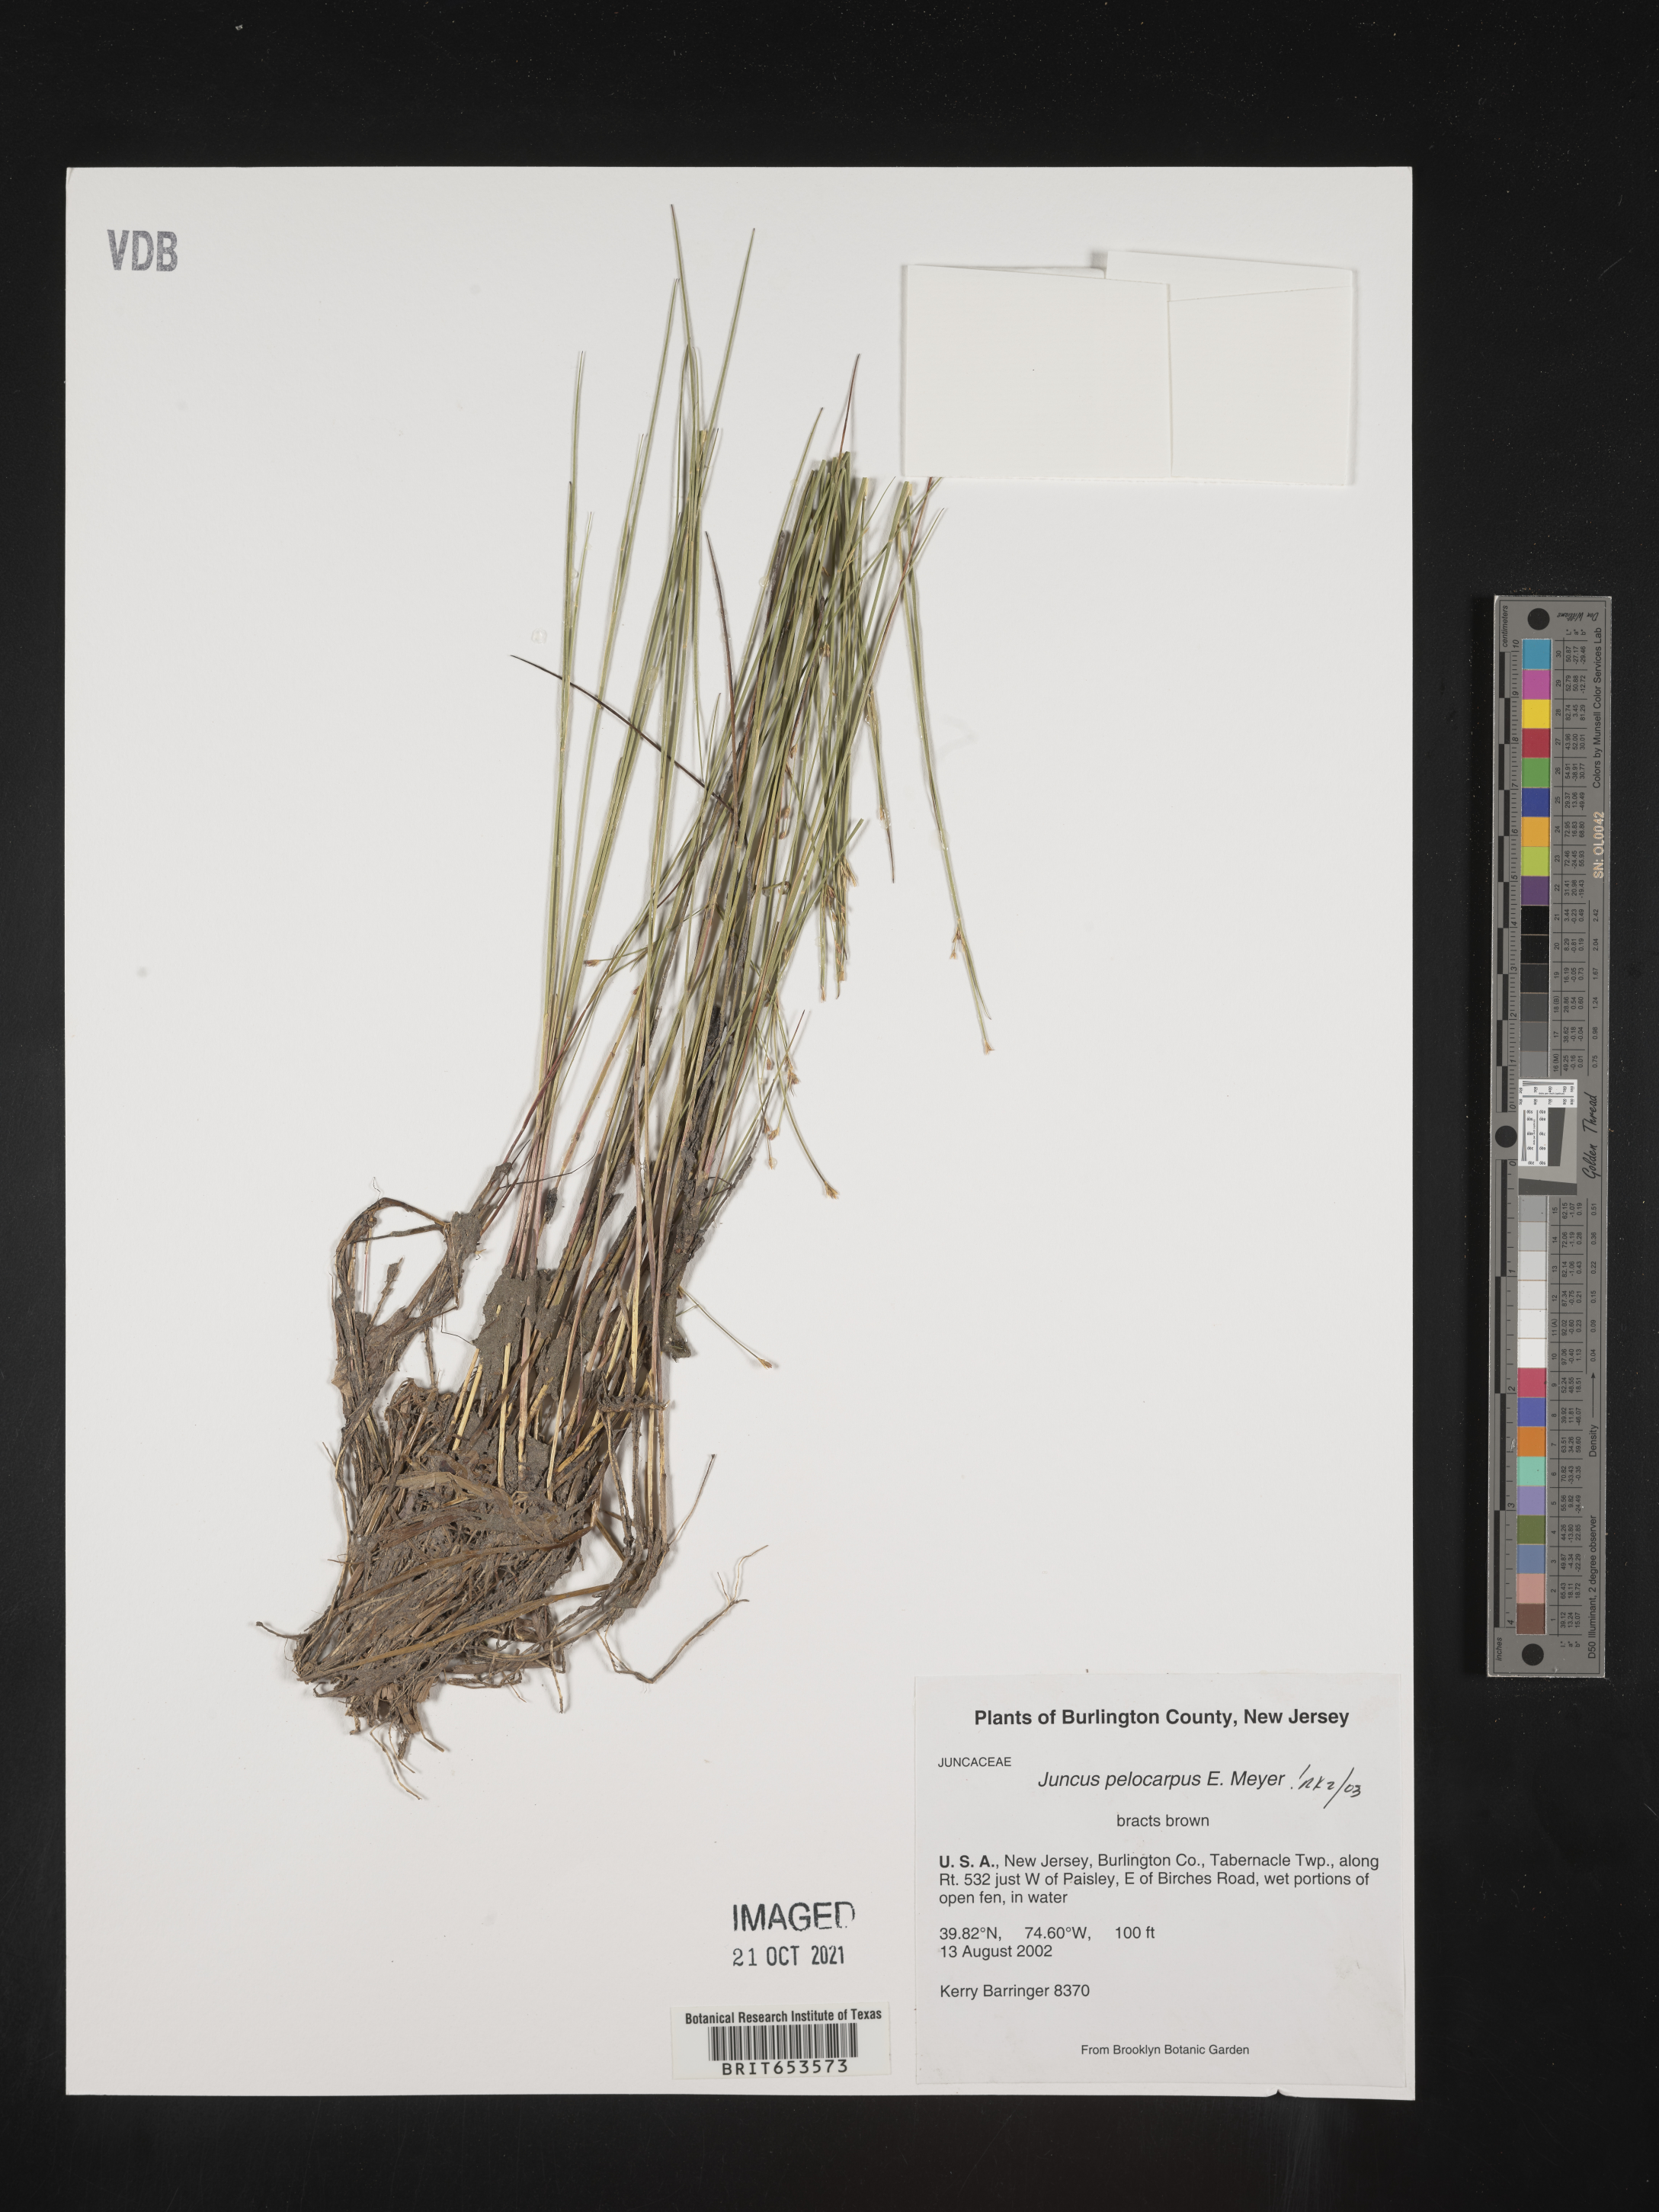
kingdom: Plantae
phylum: Tracheophyta
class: Liliopsida
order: Poales
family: Juncaceae
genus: Juncus
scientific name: Juncus pelocarpus
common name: Brown-fruited rush
